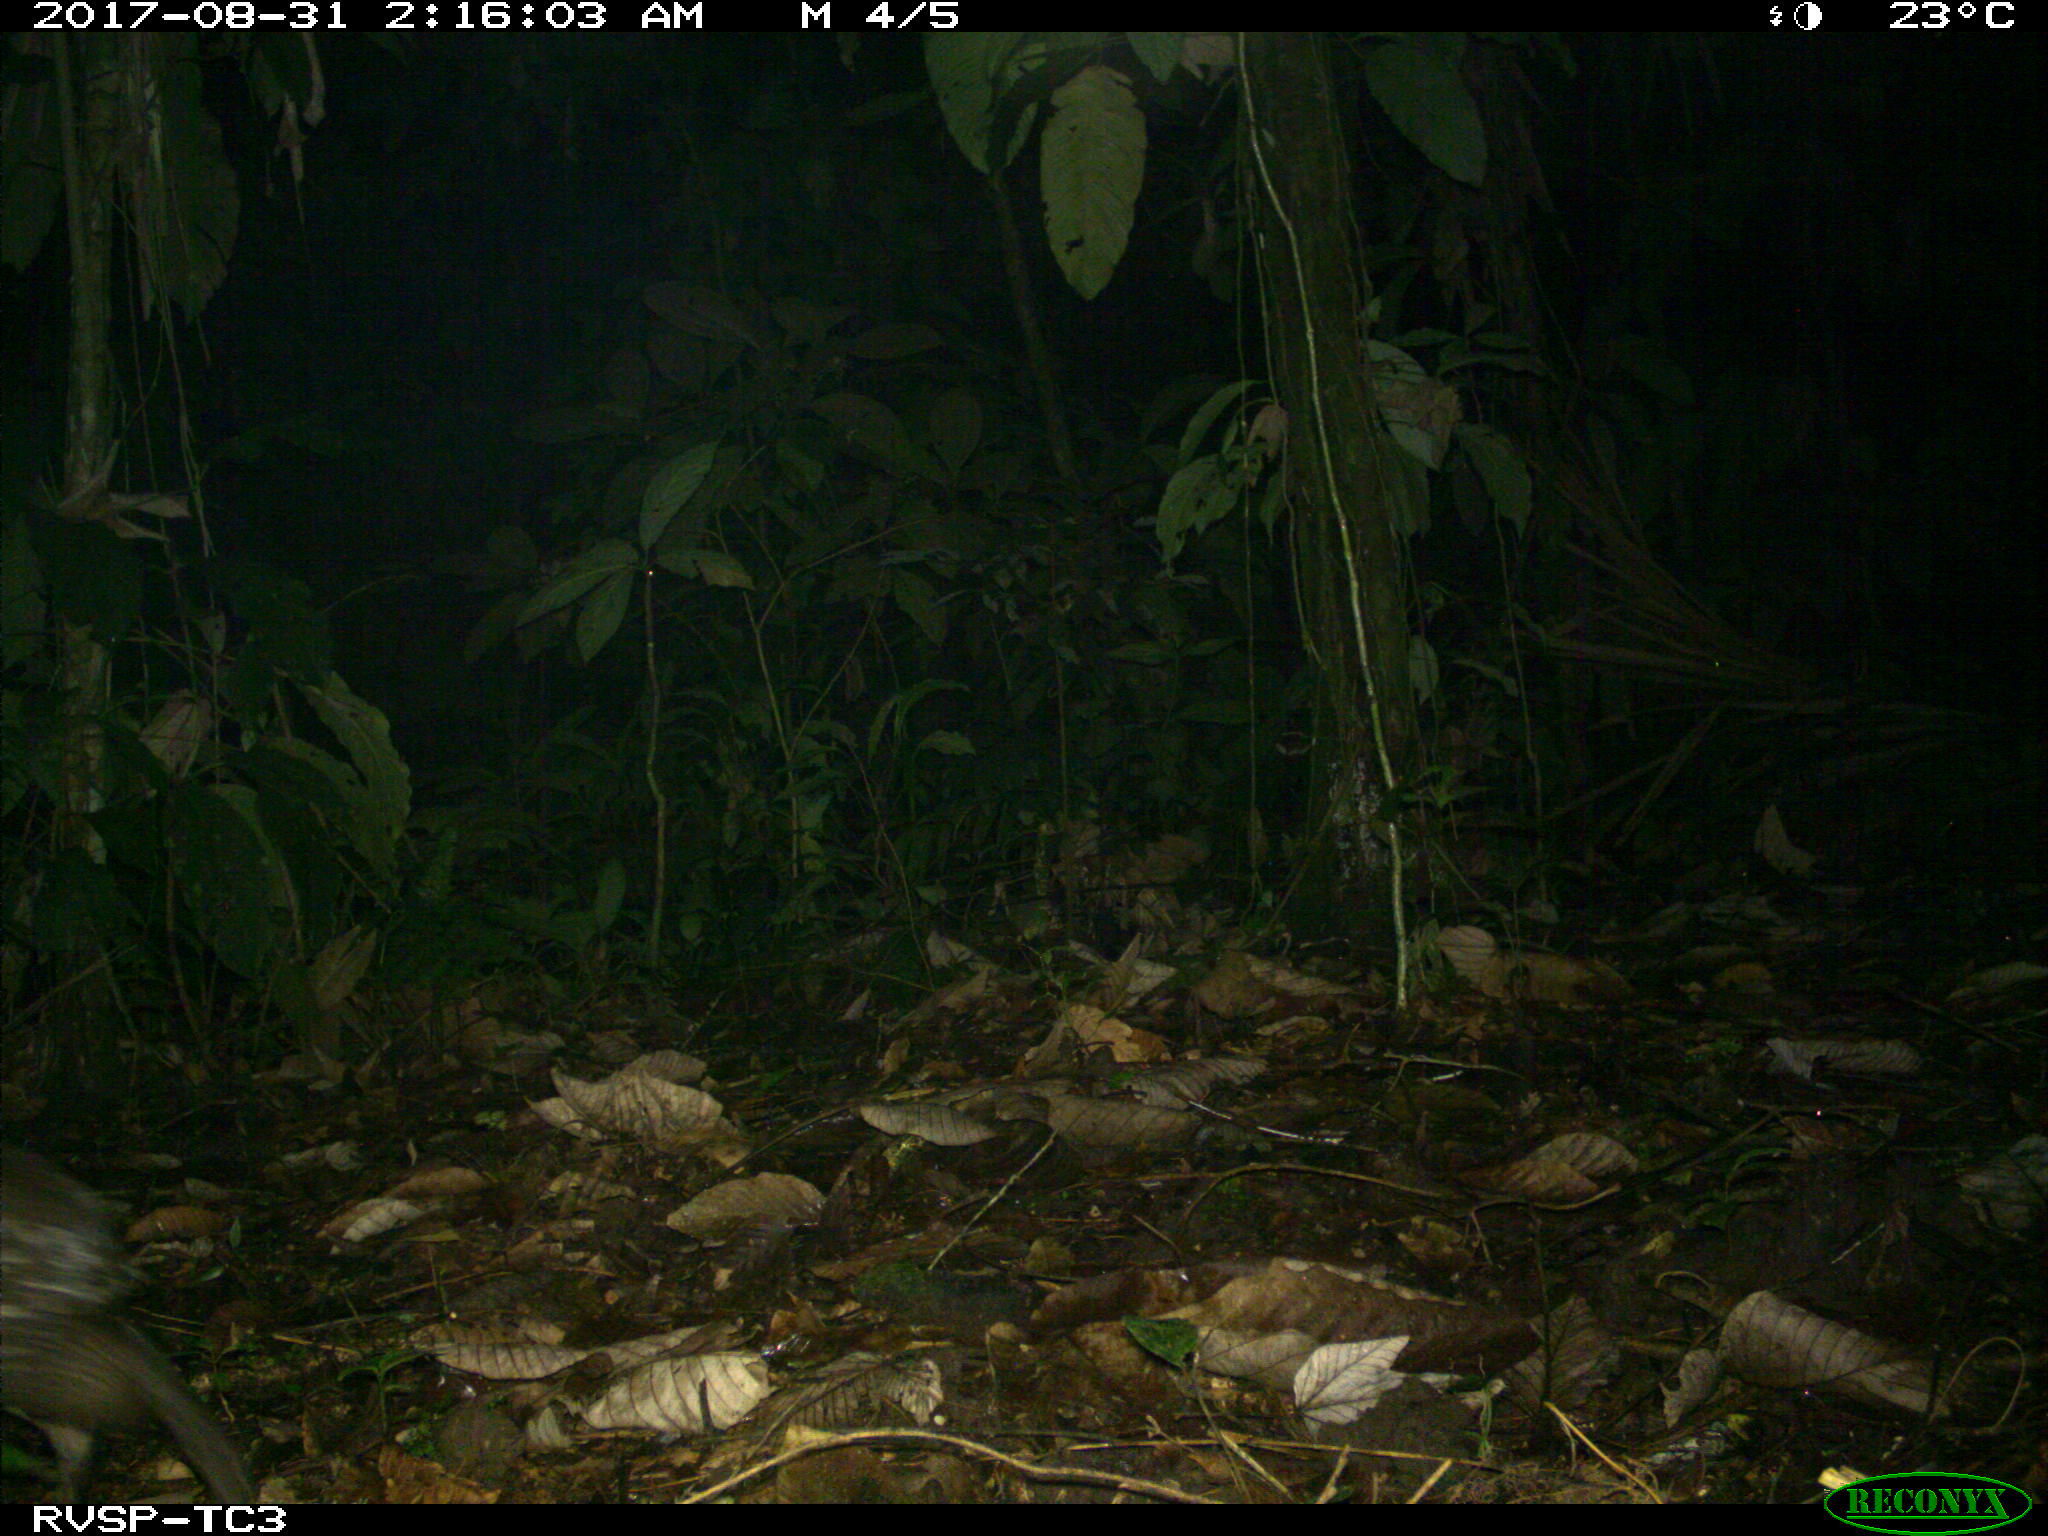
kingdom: Animalia
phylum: Chordata
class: Mammalia
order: Rodentia
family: Cuniculidae
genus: Cuniculus
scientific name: Cuniculus paca
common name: Lowland paca
